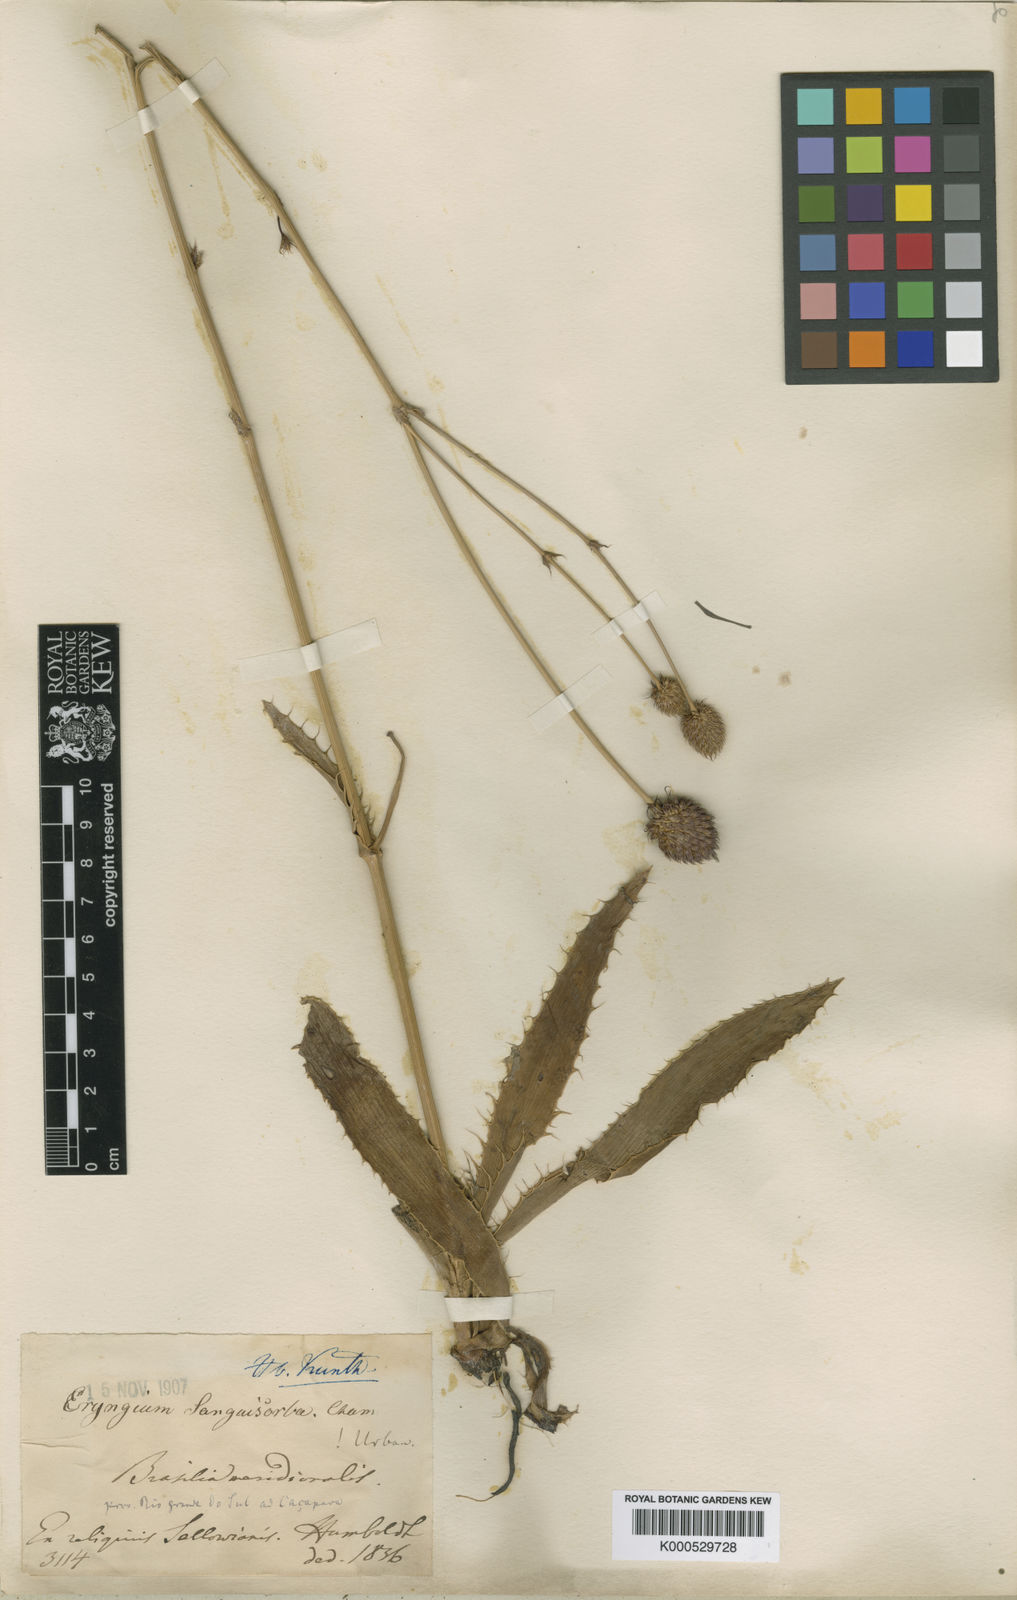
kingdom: Plantae
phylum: Tracheophyta
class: Magnoliopsida
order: Apiales
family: Apiaceae
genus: Eryngium
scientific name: Eryngium sanguisorba
